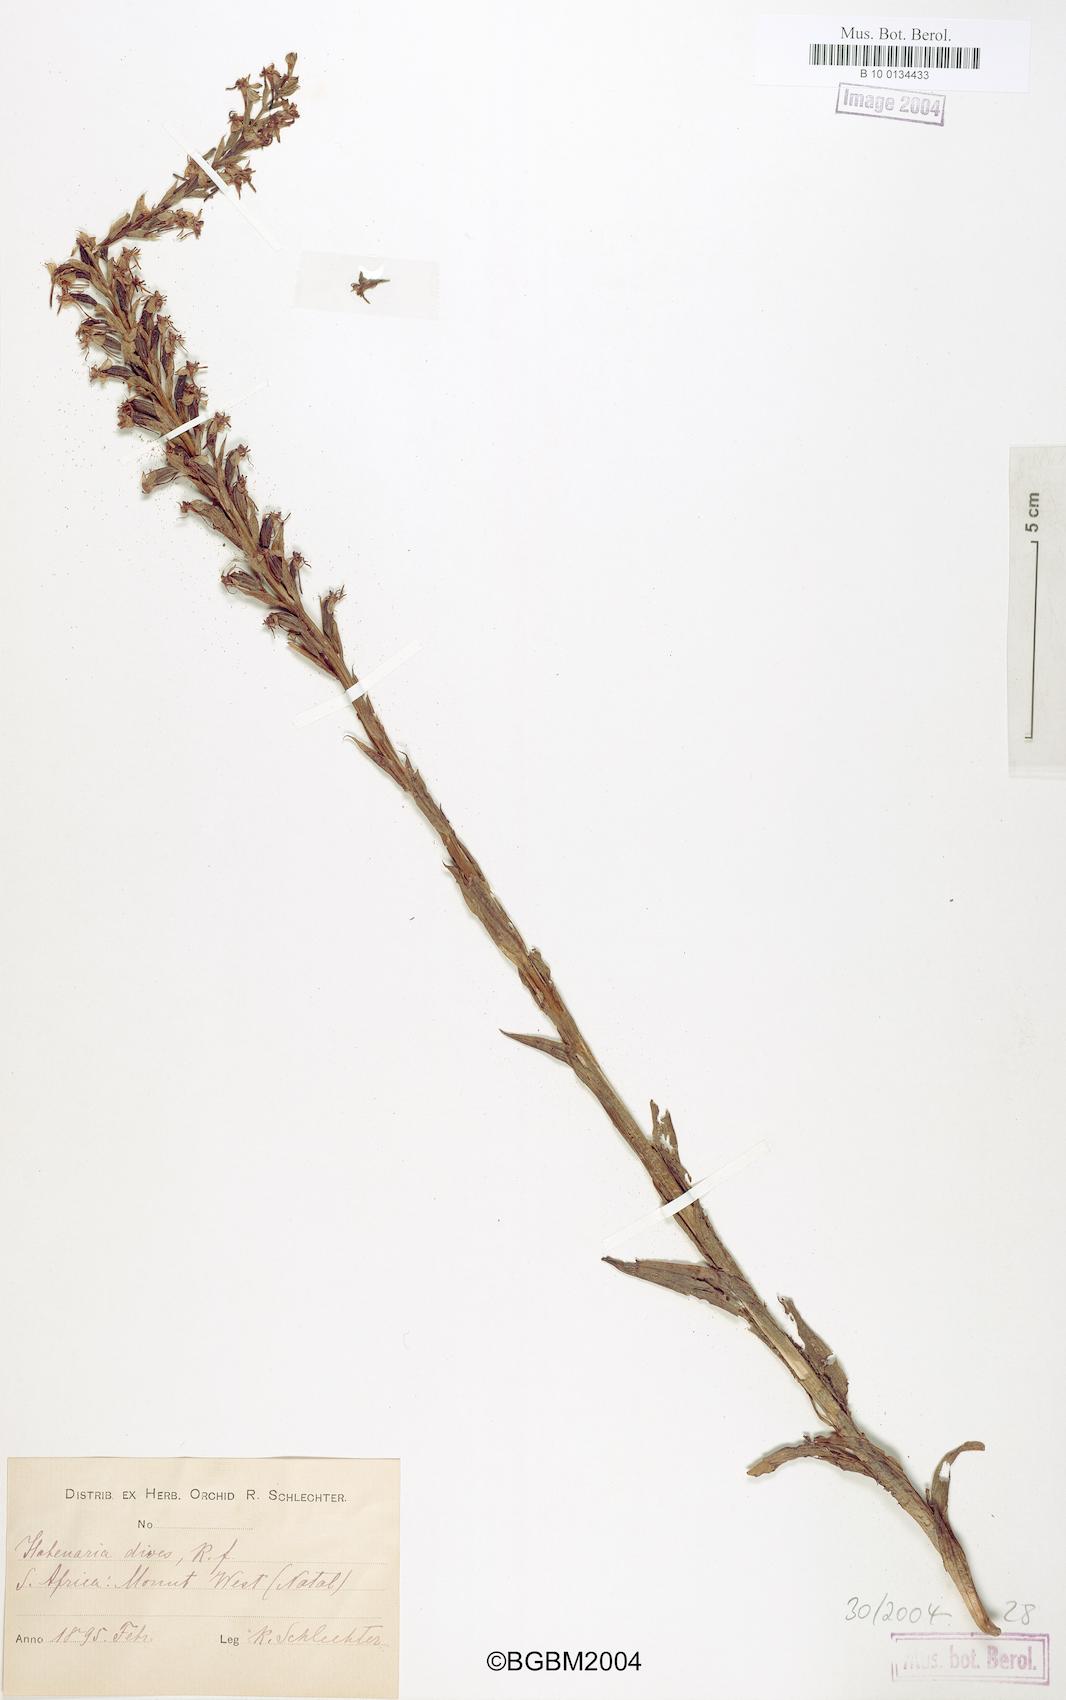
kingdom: Plantae
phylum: Tracheophyta
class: Liliopsida
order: Asparagales
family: Orchidaceae
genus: Habenaria
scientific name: Habenaria dives
